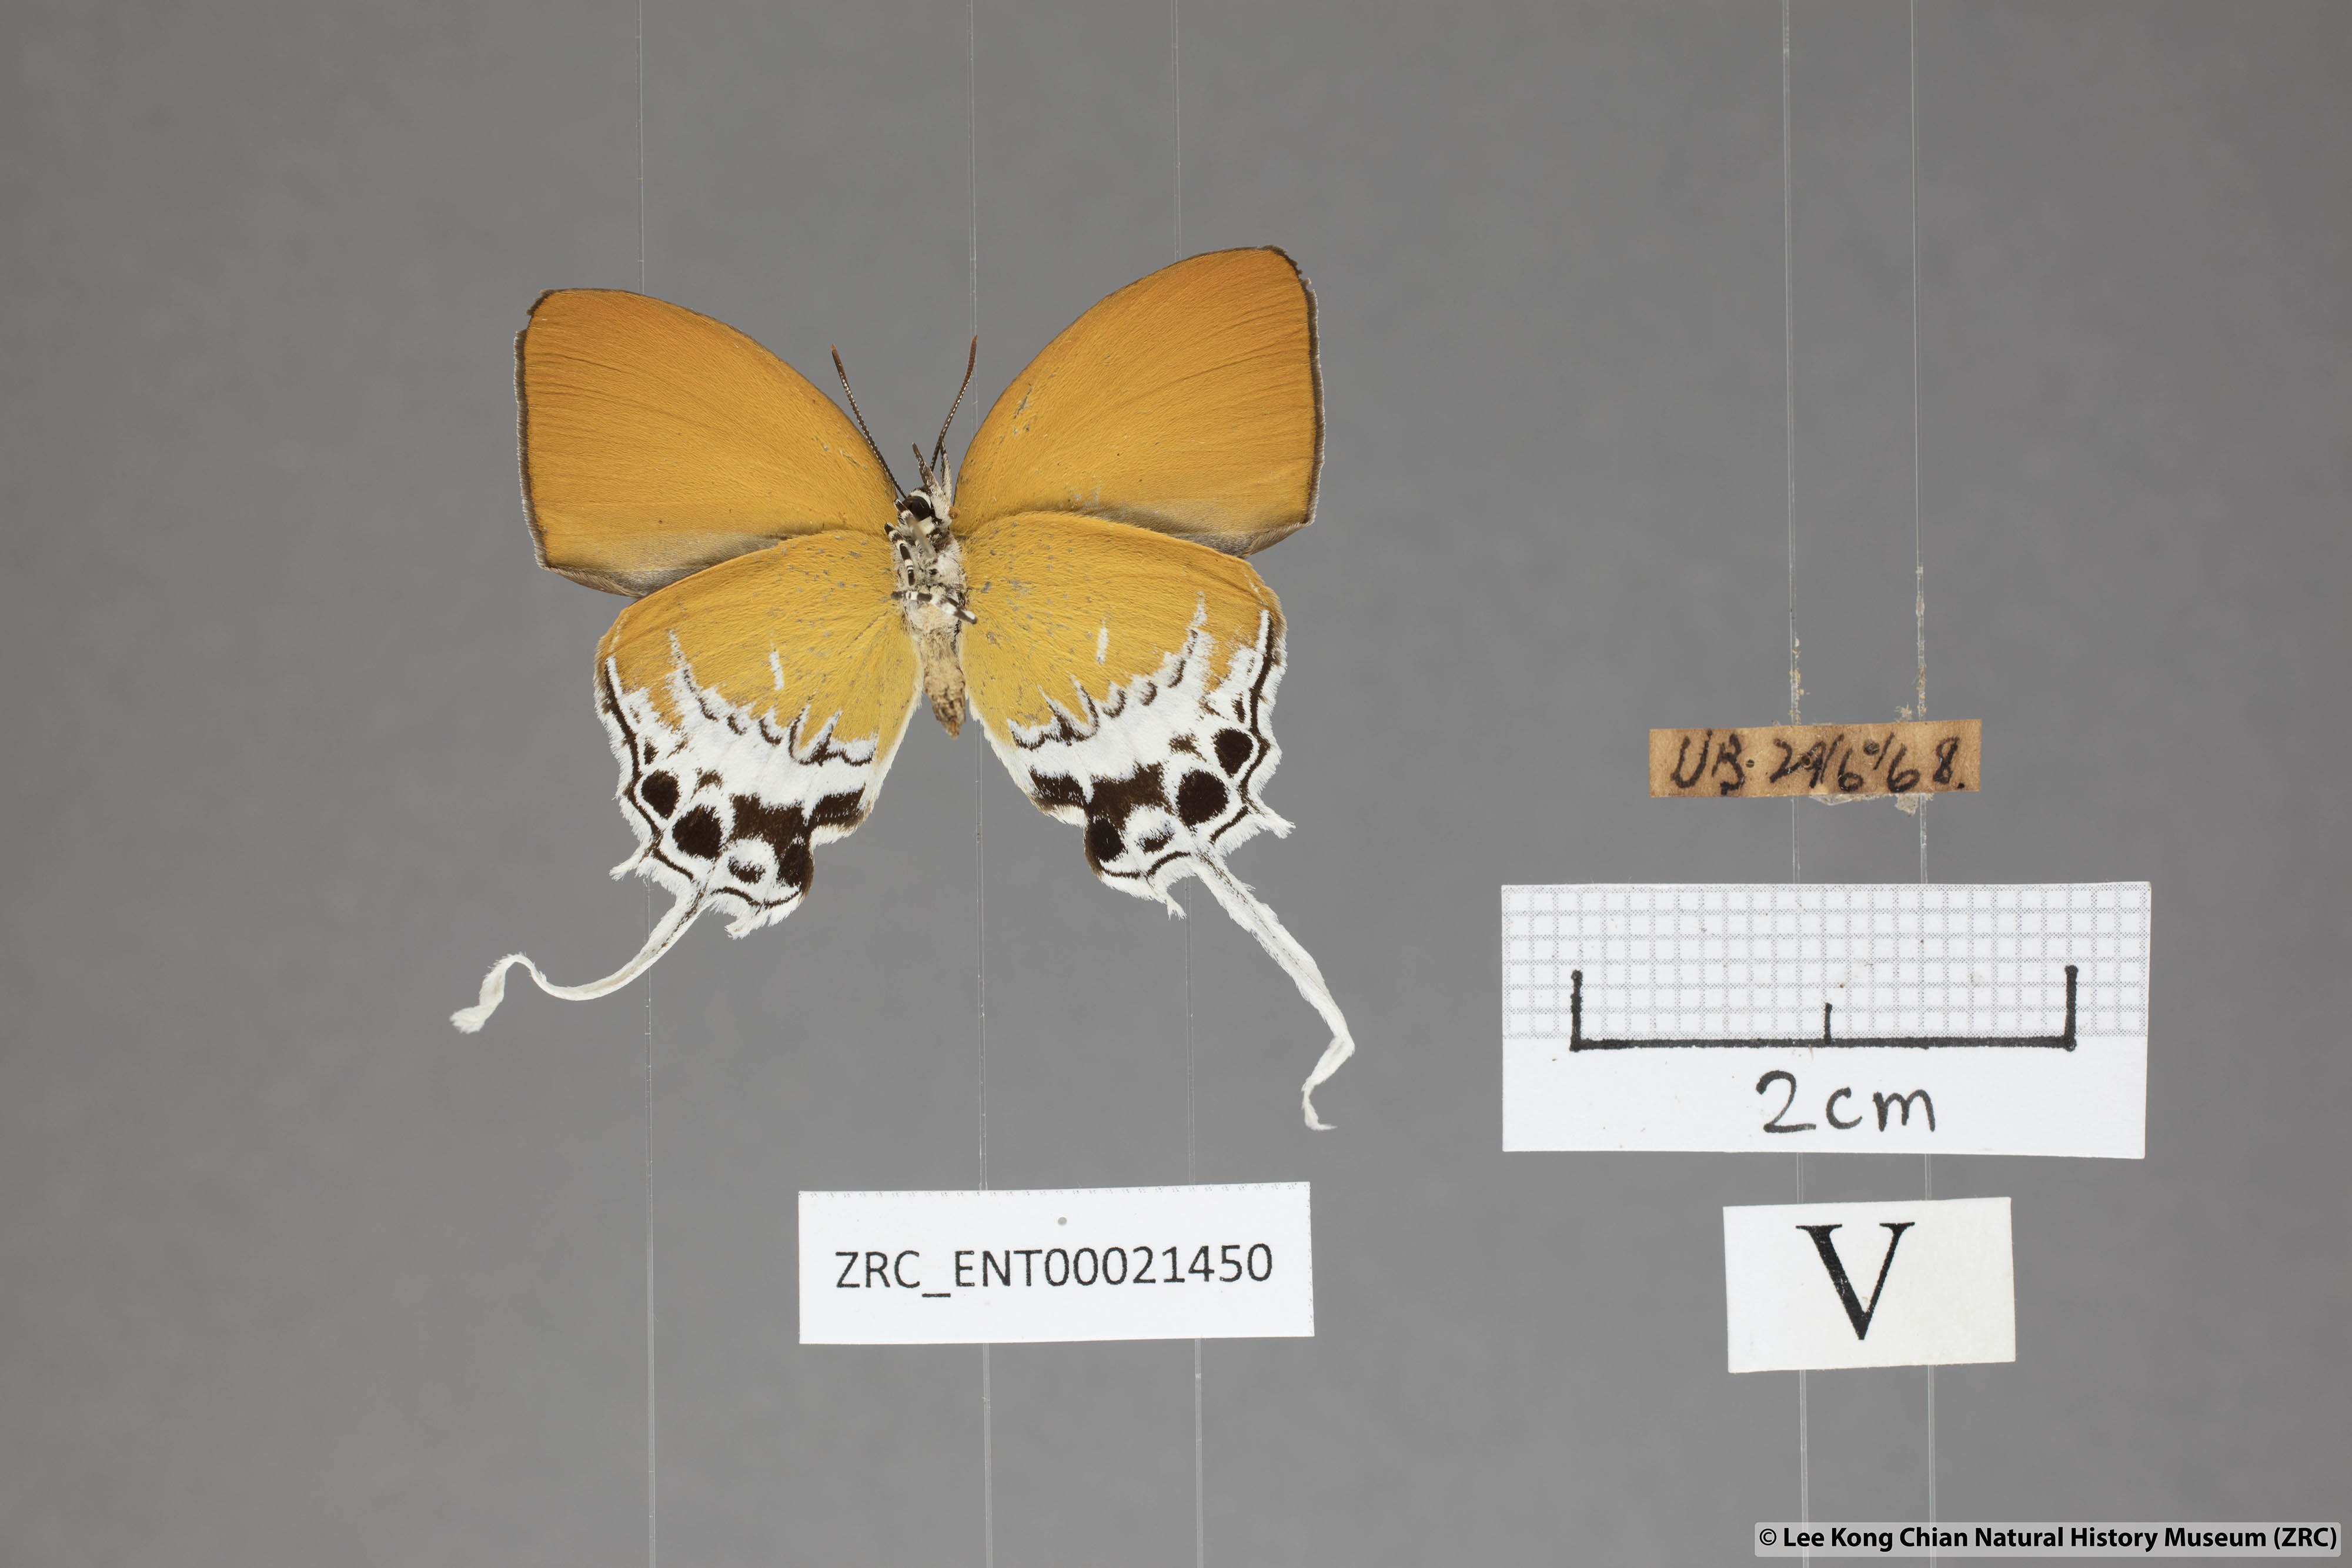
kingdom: Animalia
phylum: Arthropoda
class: Insecta
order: Lepidoptera
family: Lycaenidae
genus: Eooxylides
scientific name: Eooxylides tharis
